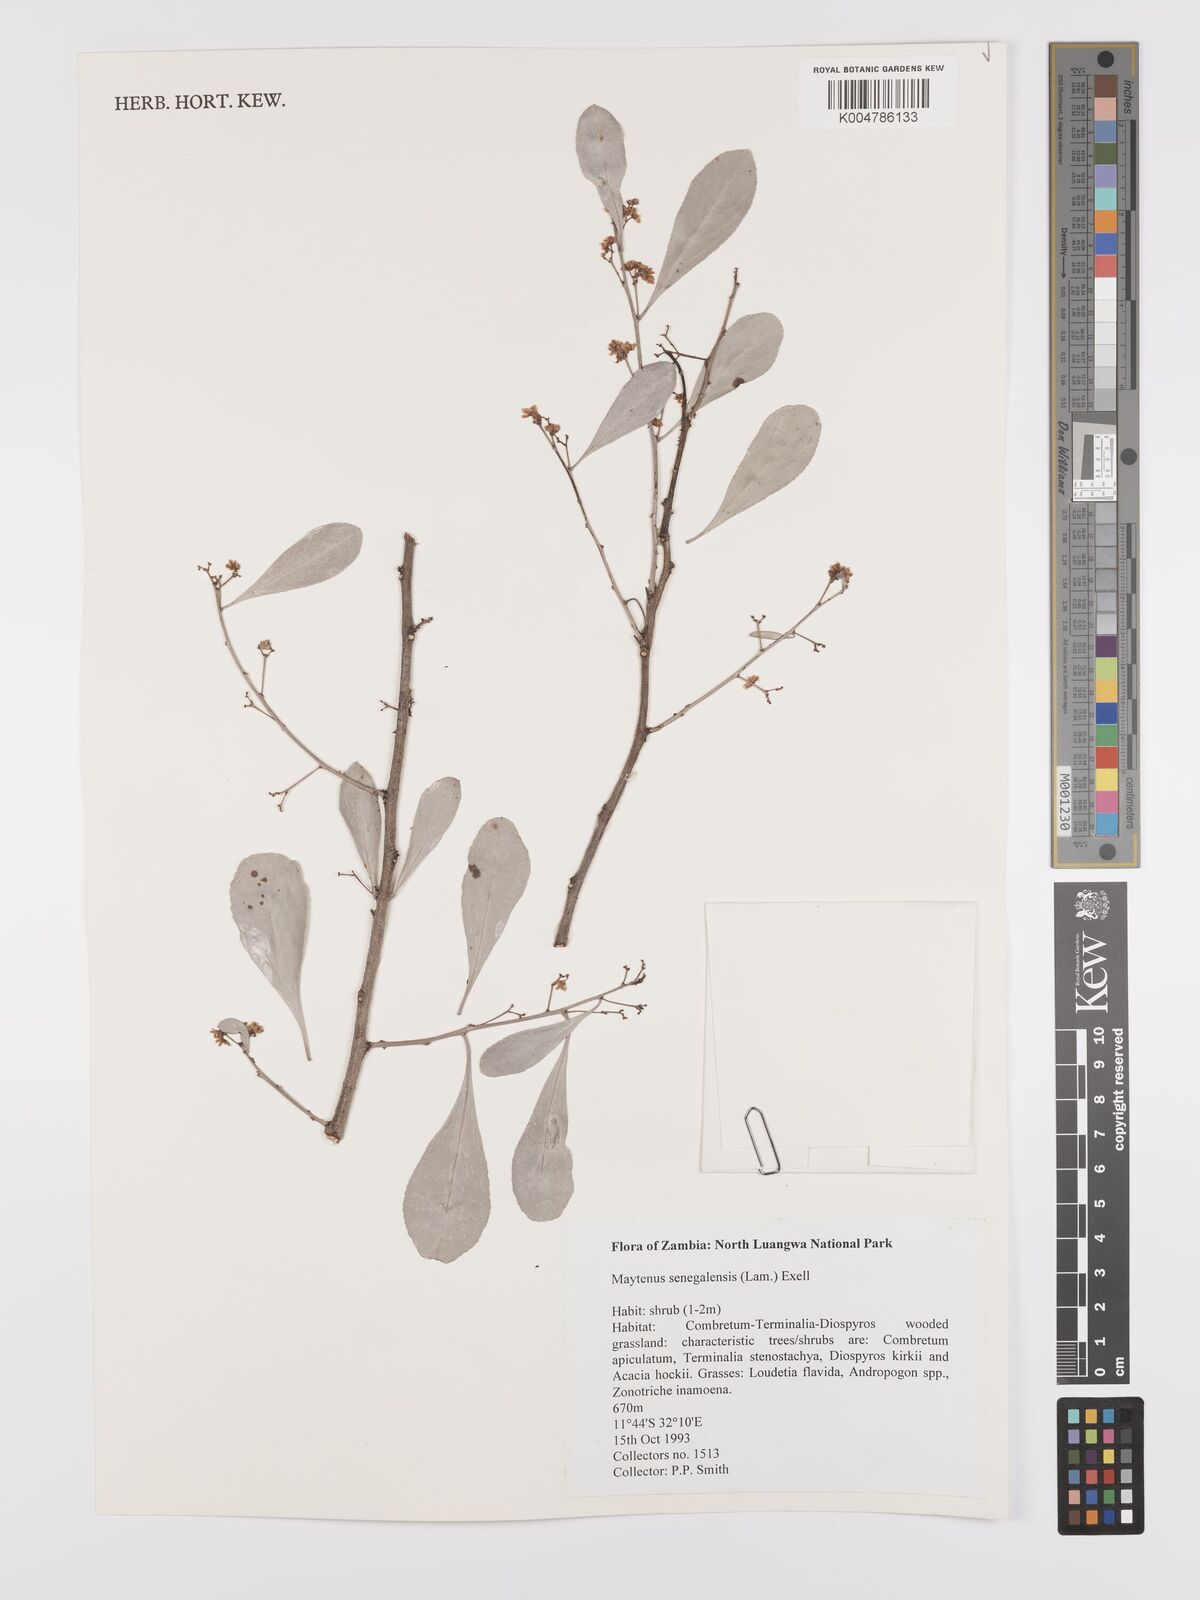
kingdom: Plantae
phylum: Tracheophyta
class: Magnoliopsida
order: Celastrales
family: Celastraceae
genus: Gymnosporia
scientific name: Gymnosporia senegalensis
